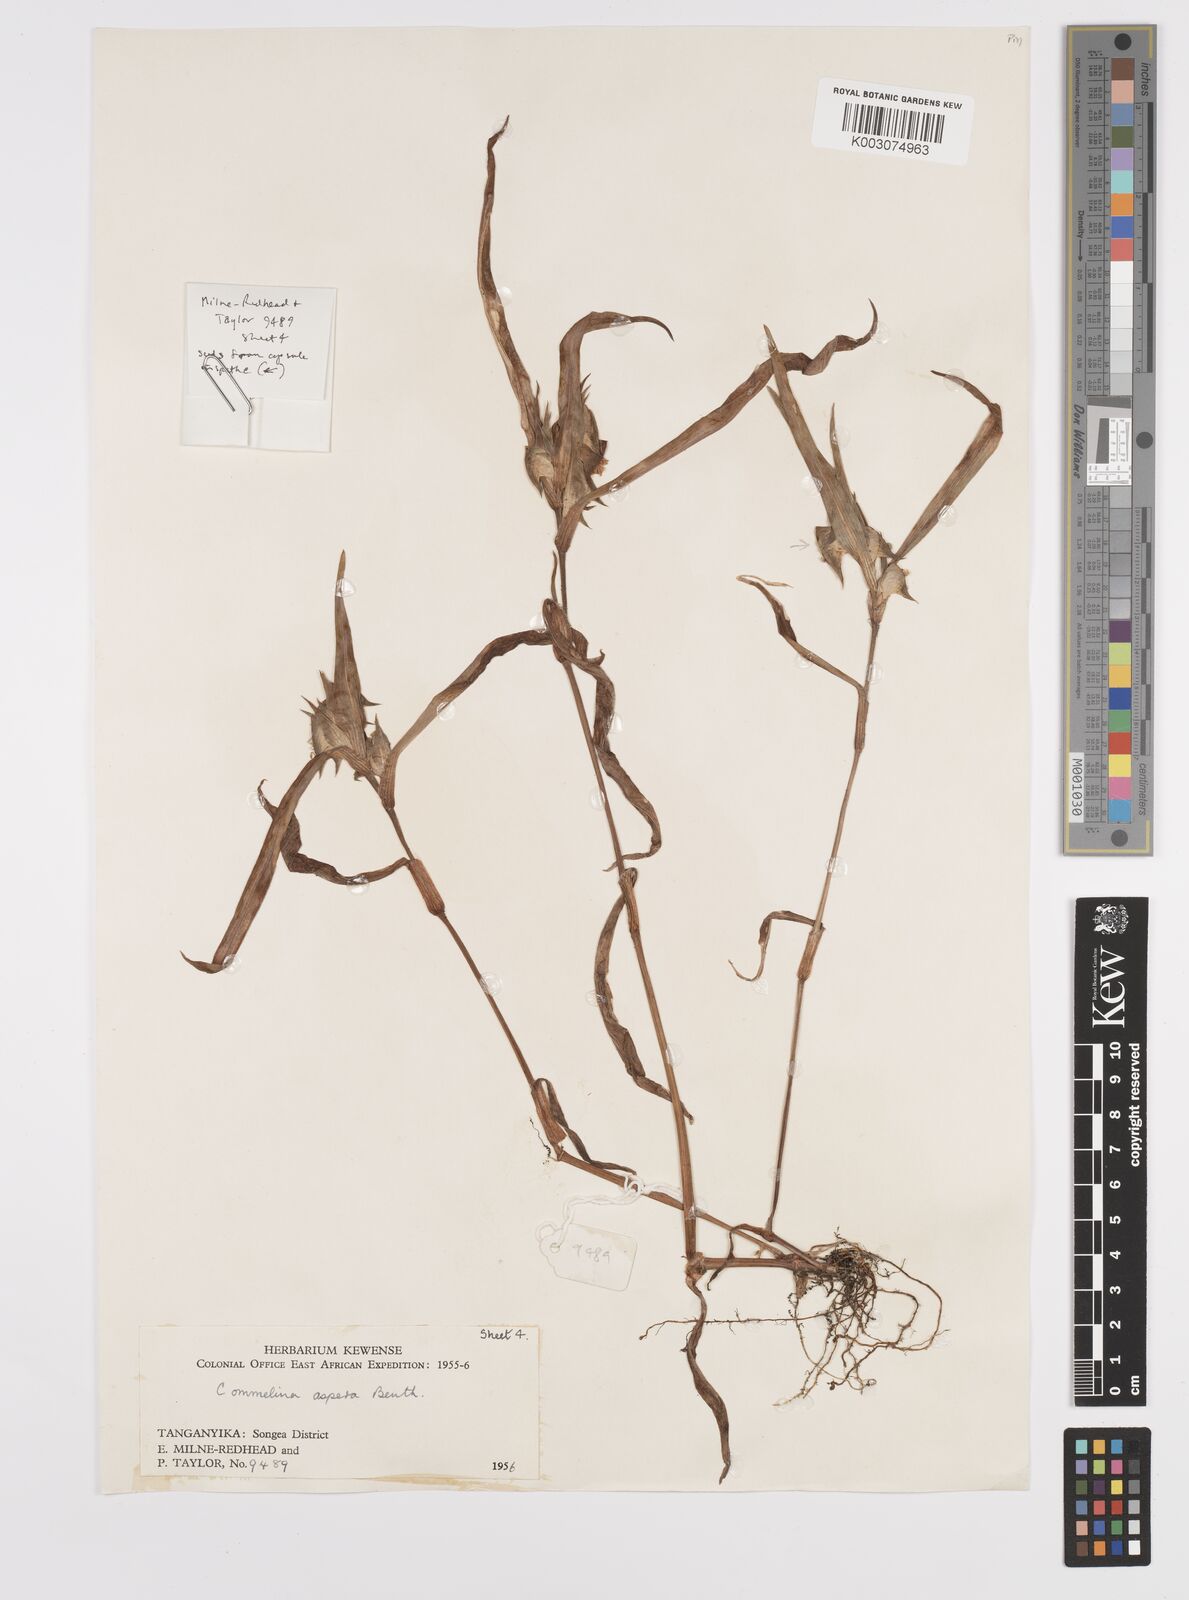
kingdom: Plantae
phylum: Tracheophyta
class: Liliopsida
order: Commelinales
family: Commelinaceae
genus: Commelina
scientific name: Commelina aspera
